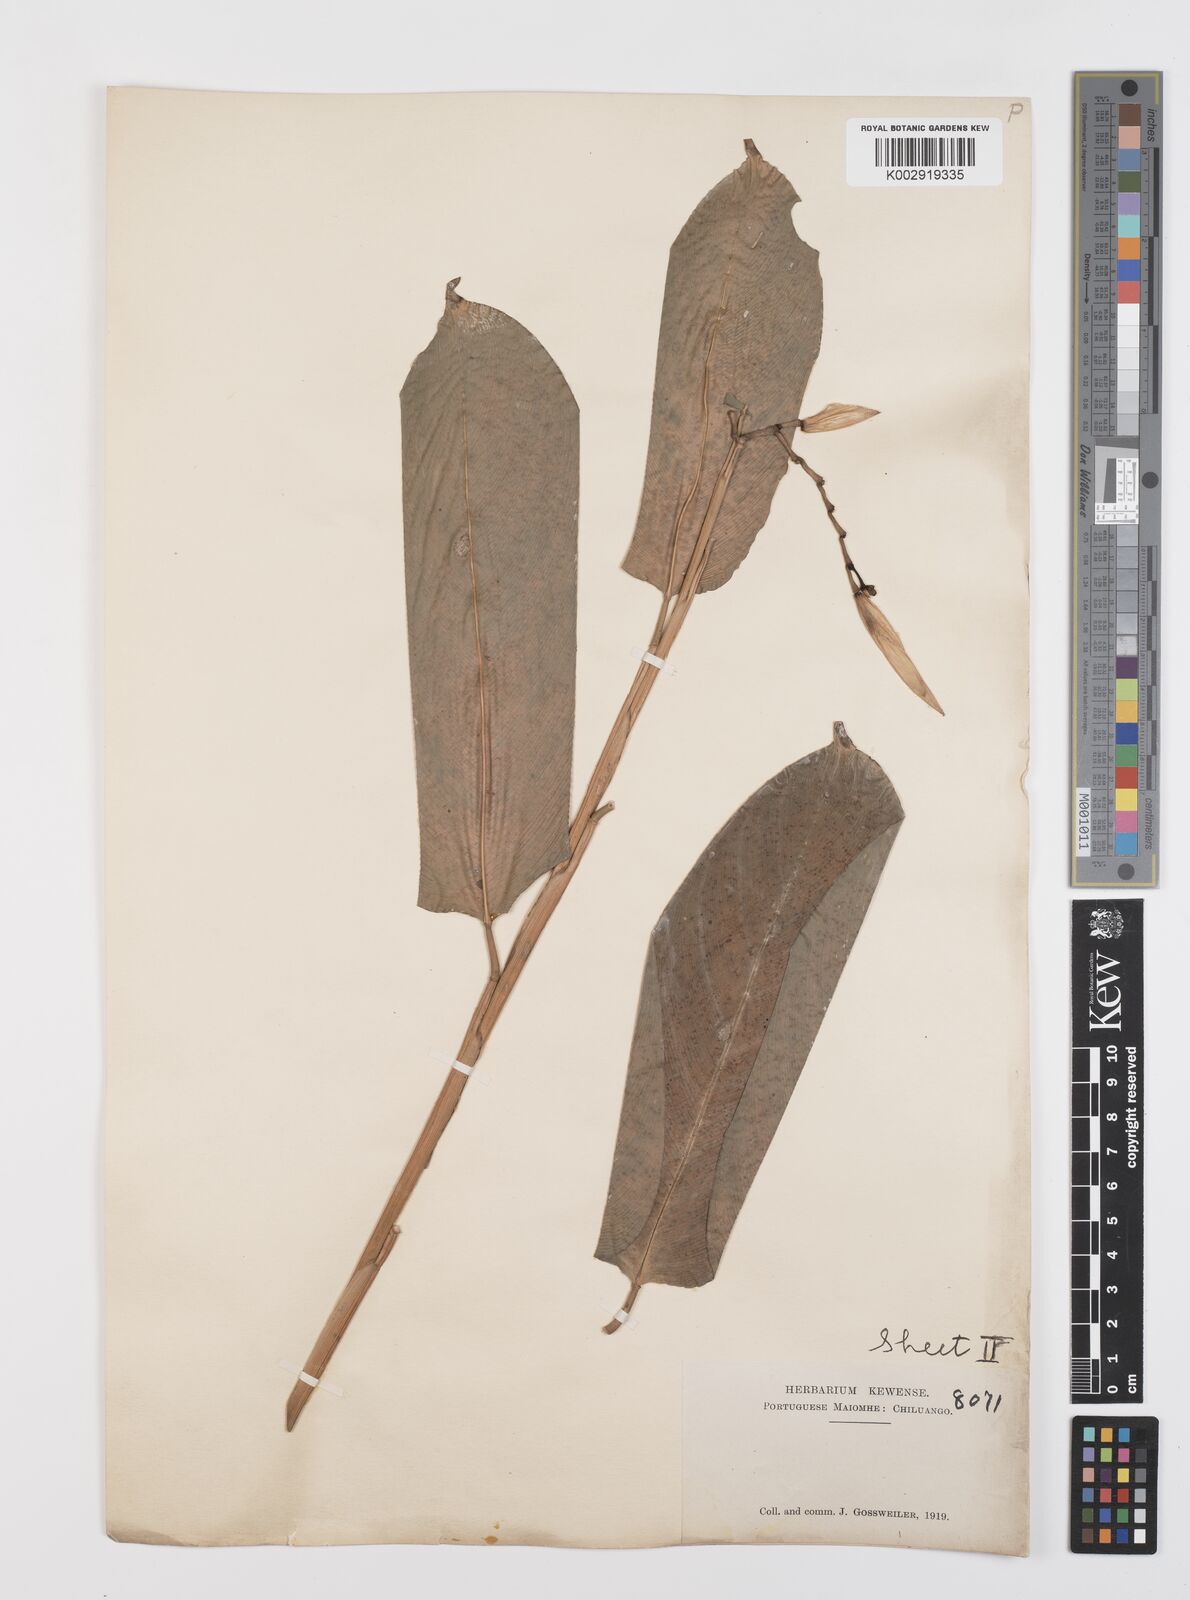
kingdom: Plantae
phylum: Tracheophyta
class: Liliopsida
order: Zingiberales
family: Marantaceae
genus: Hypselodelphys
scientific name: Hypselodelphys violacea
